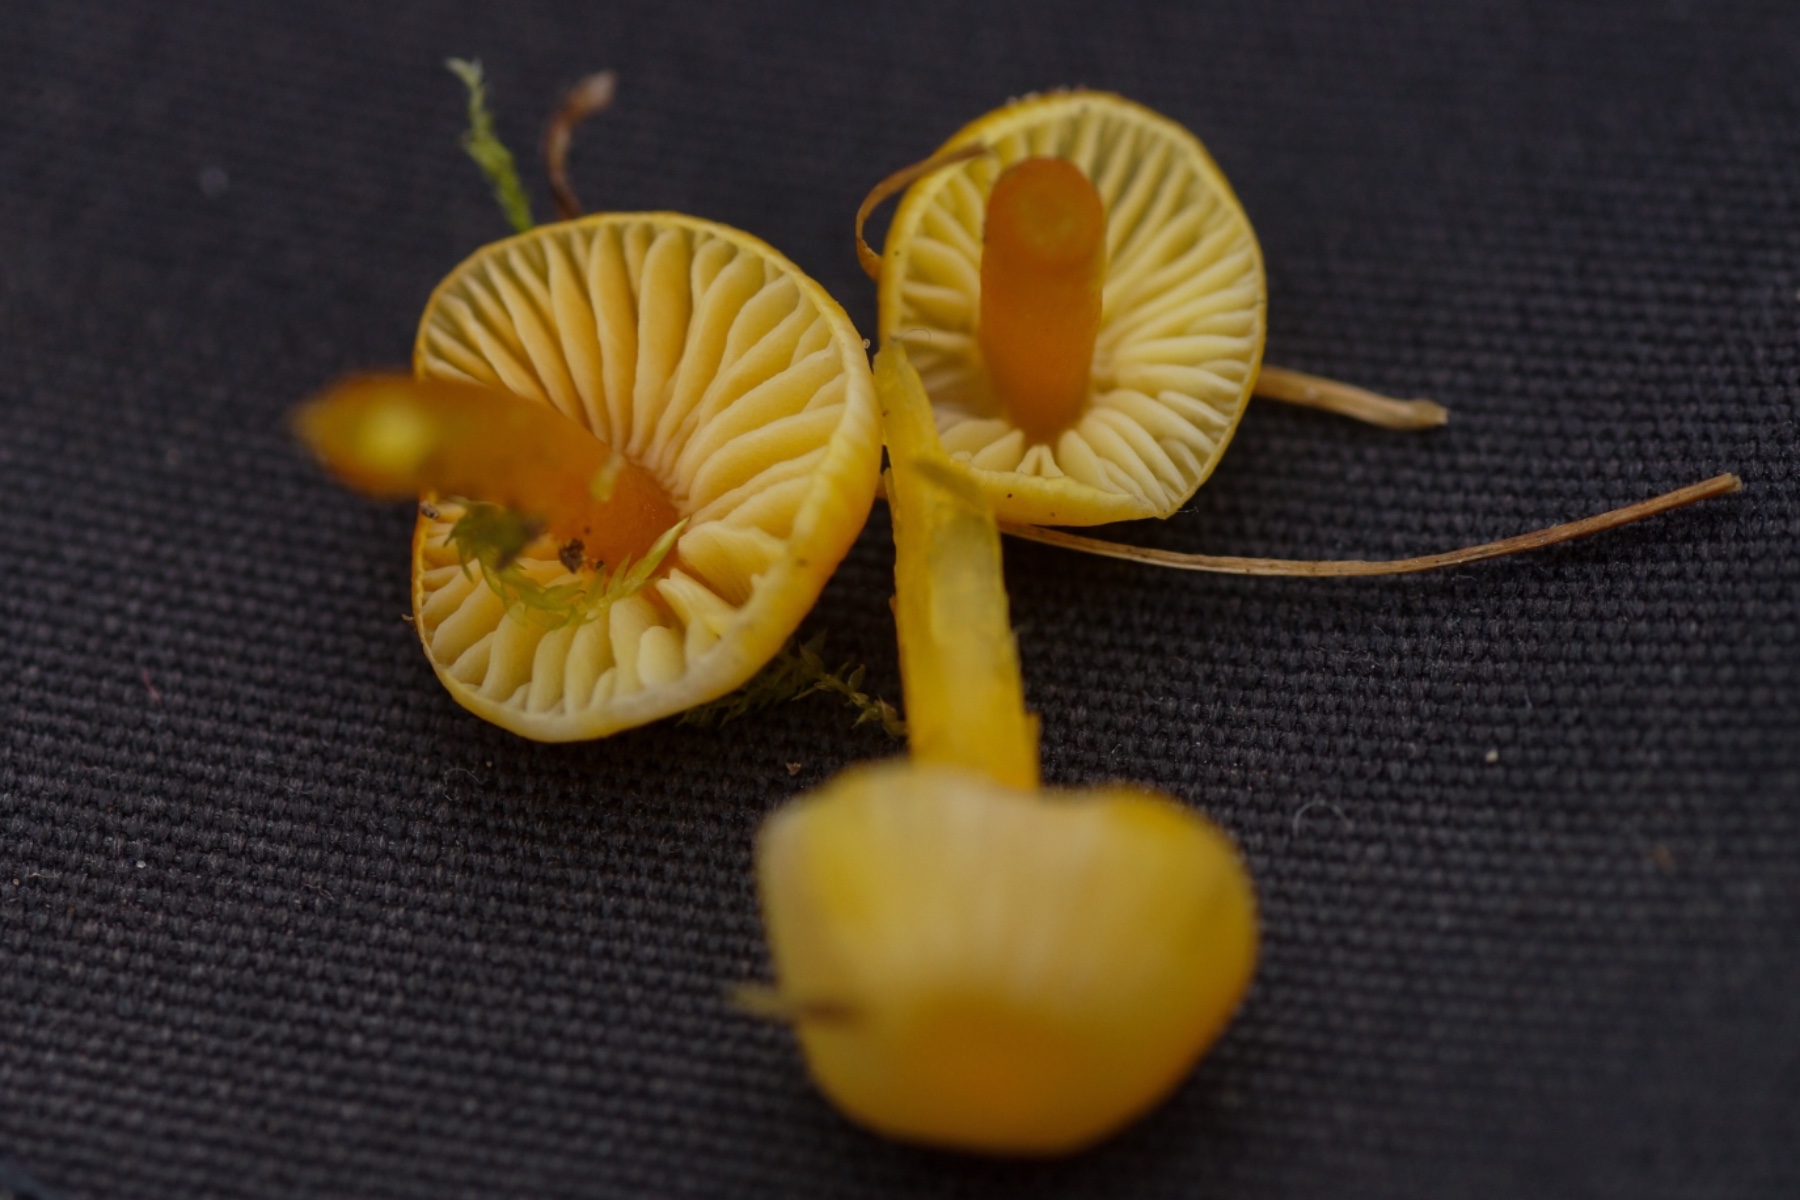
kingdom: Fungi
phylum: Basidiomycota
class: Agaricomycetes
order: Agaricales
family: Hygrophoraceae
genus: Hygrocybe
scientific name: Hygrocybe chlorophana
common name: gul vokshat
